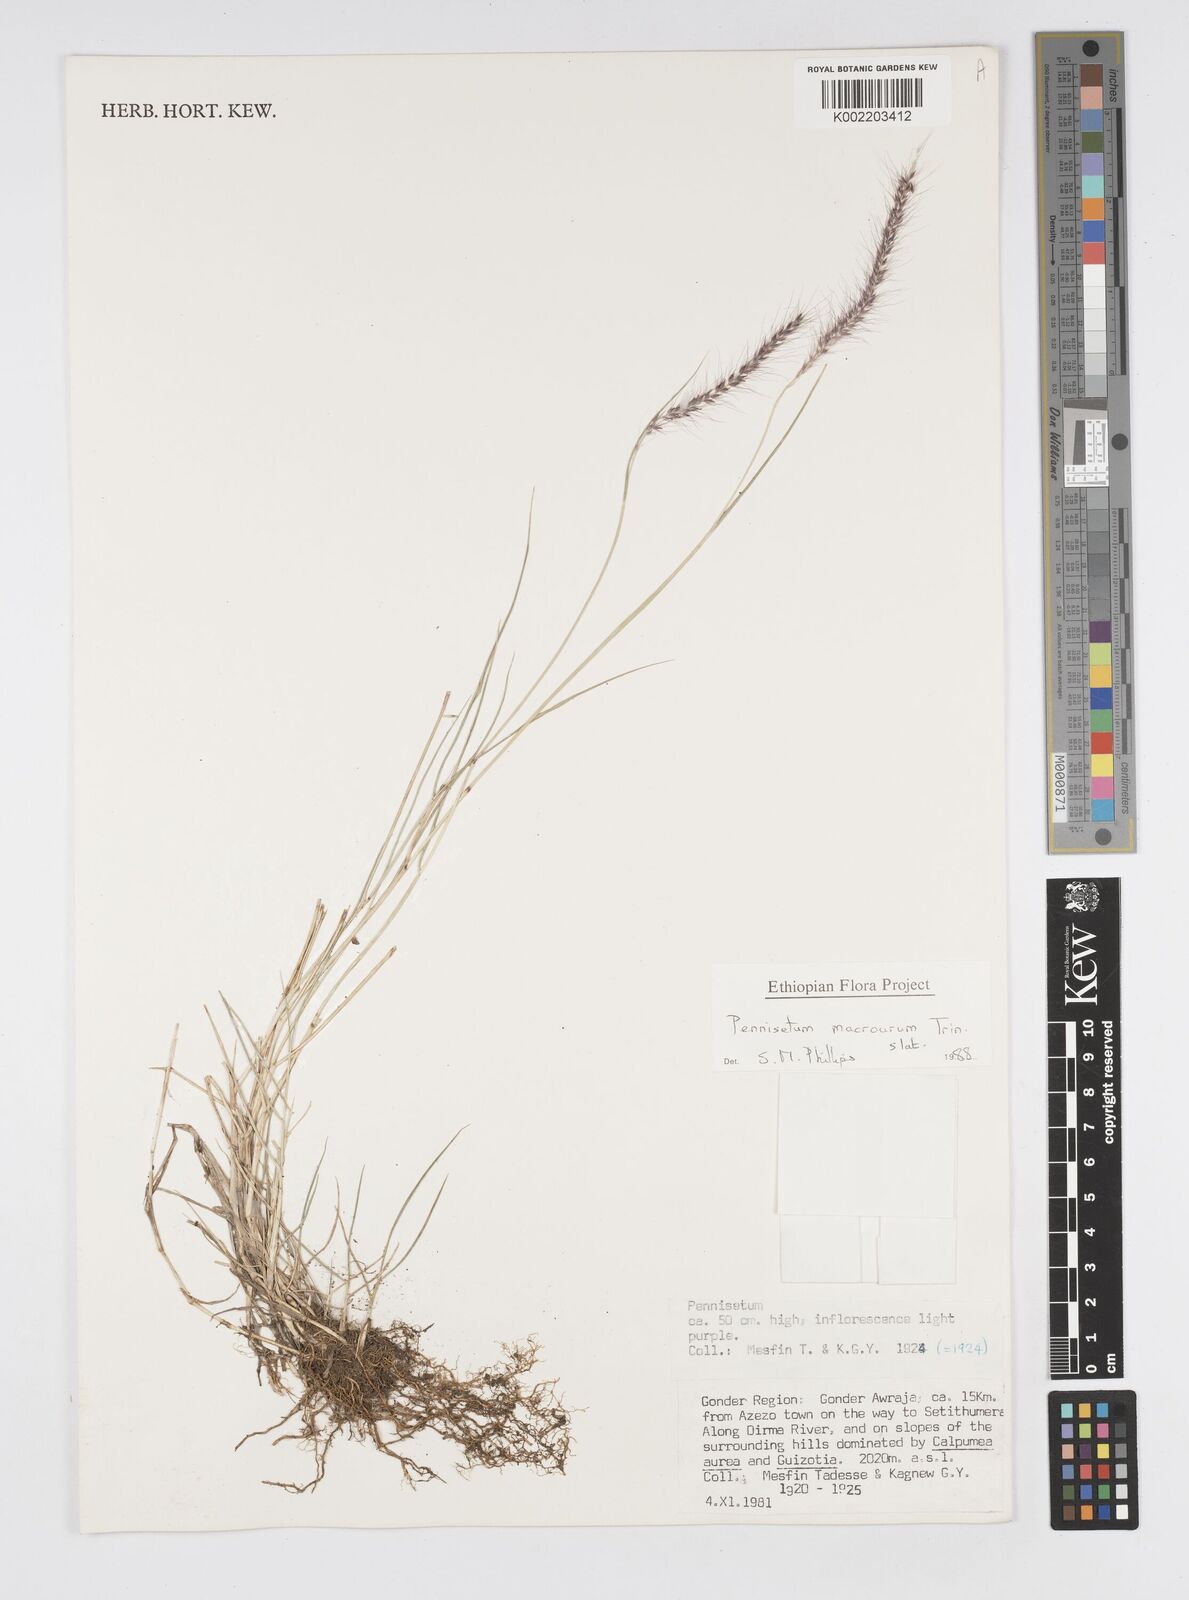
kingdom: Plantae
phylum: Tracheophyta
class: Liliopsida
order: Poales
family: Poaceae
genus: Cenchrus
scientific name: Cenchrus caudatus
